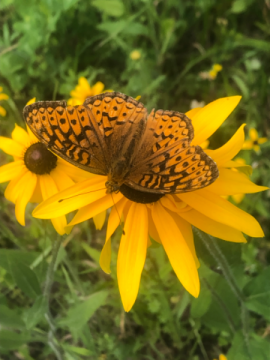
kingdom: Animalia
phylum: Arthropoda
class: Insecta
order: Lepidoptera
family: Nymphalidae
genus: Speyeria
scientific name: Speyeria atlantis
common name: Atlantis Fritillary
